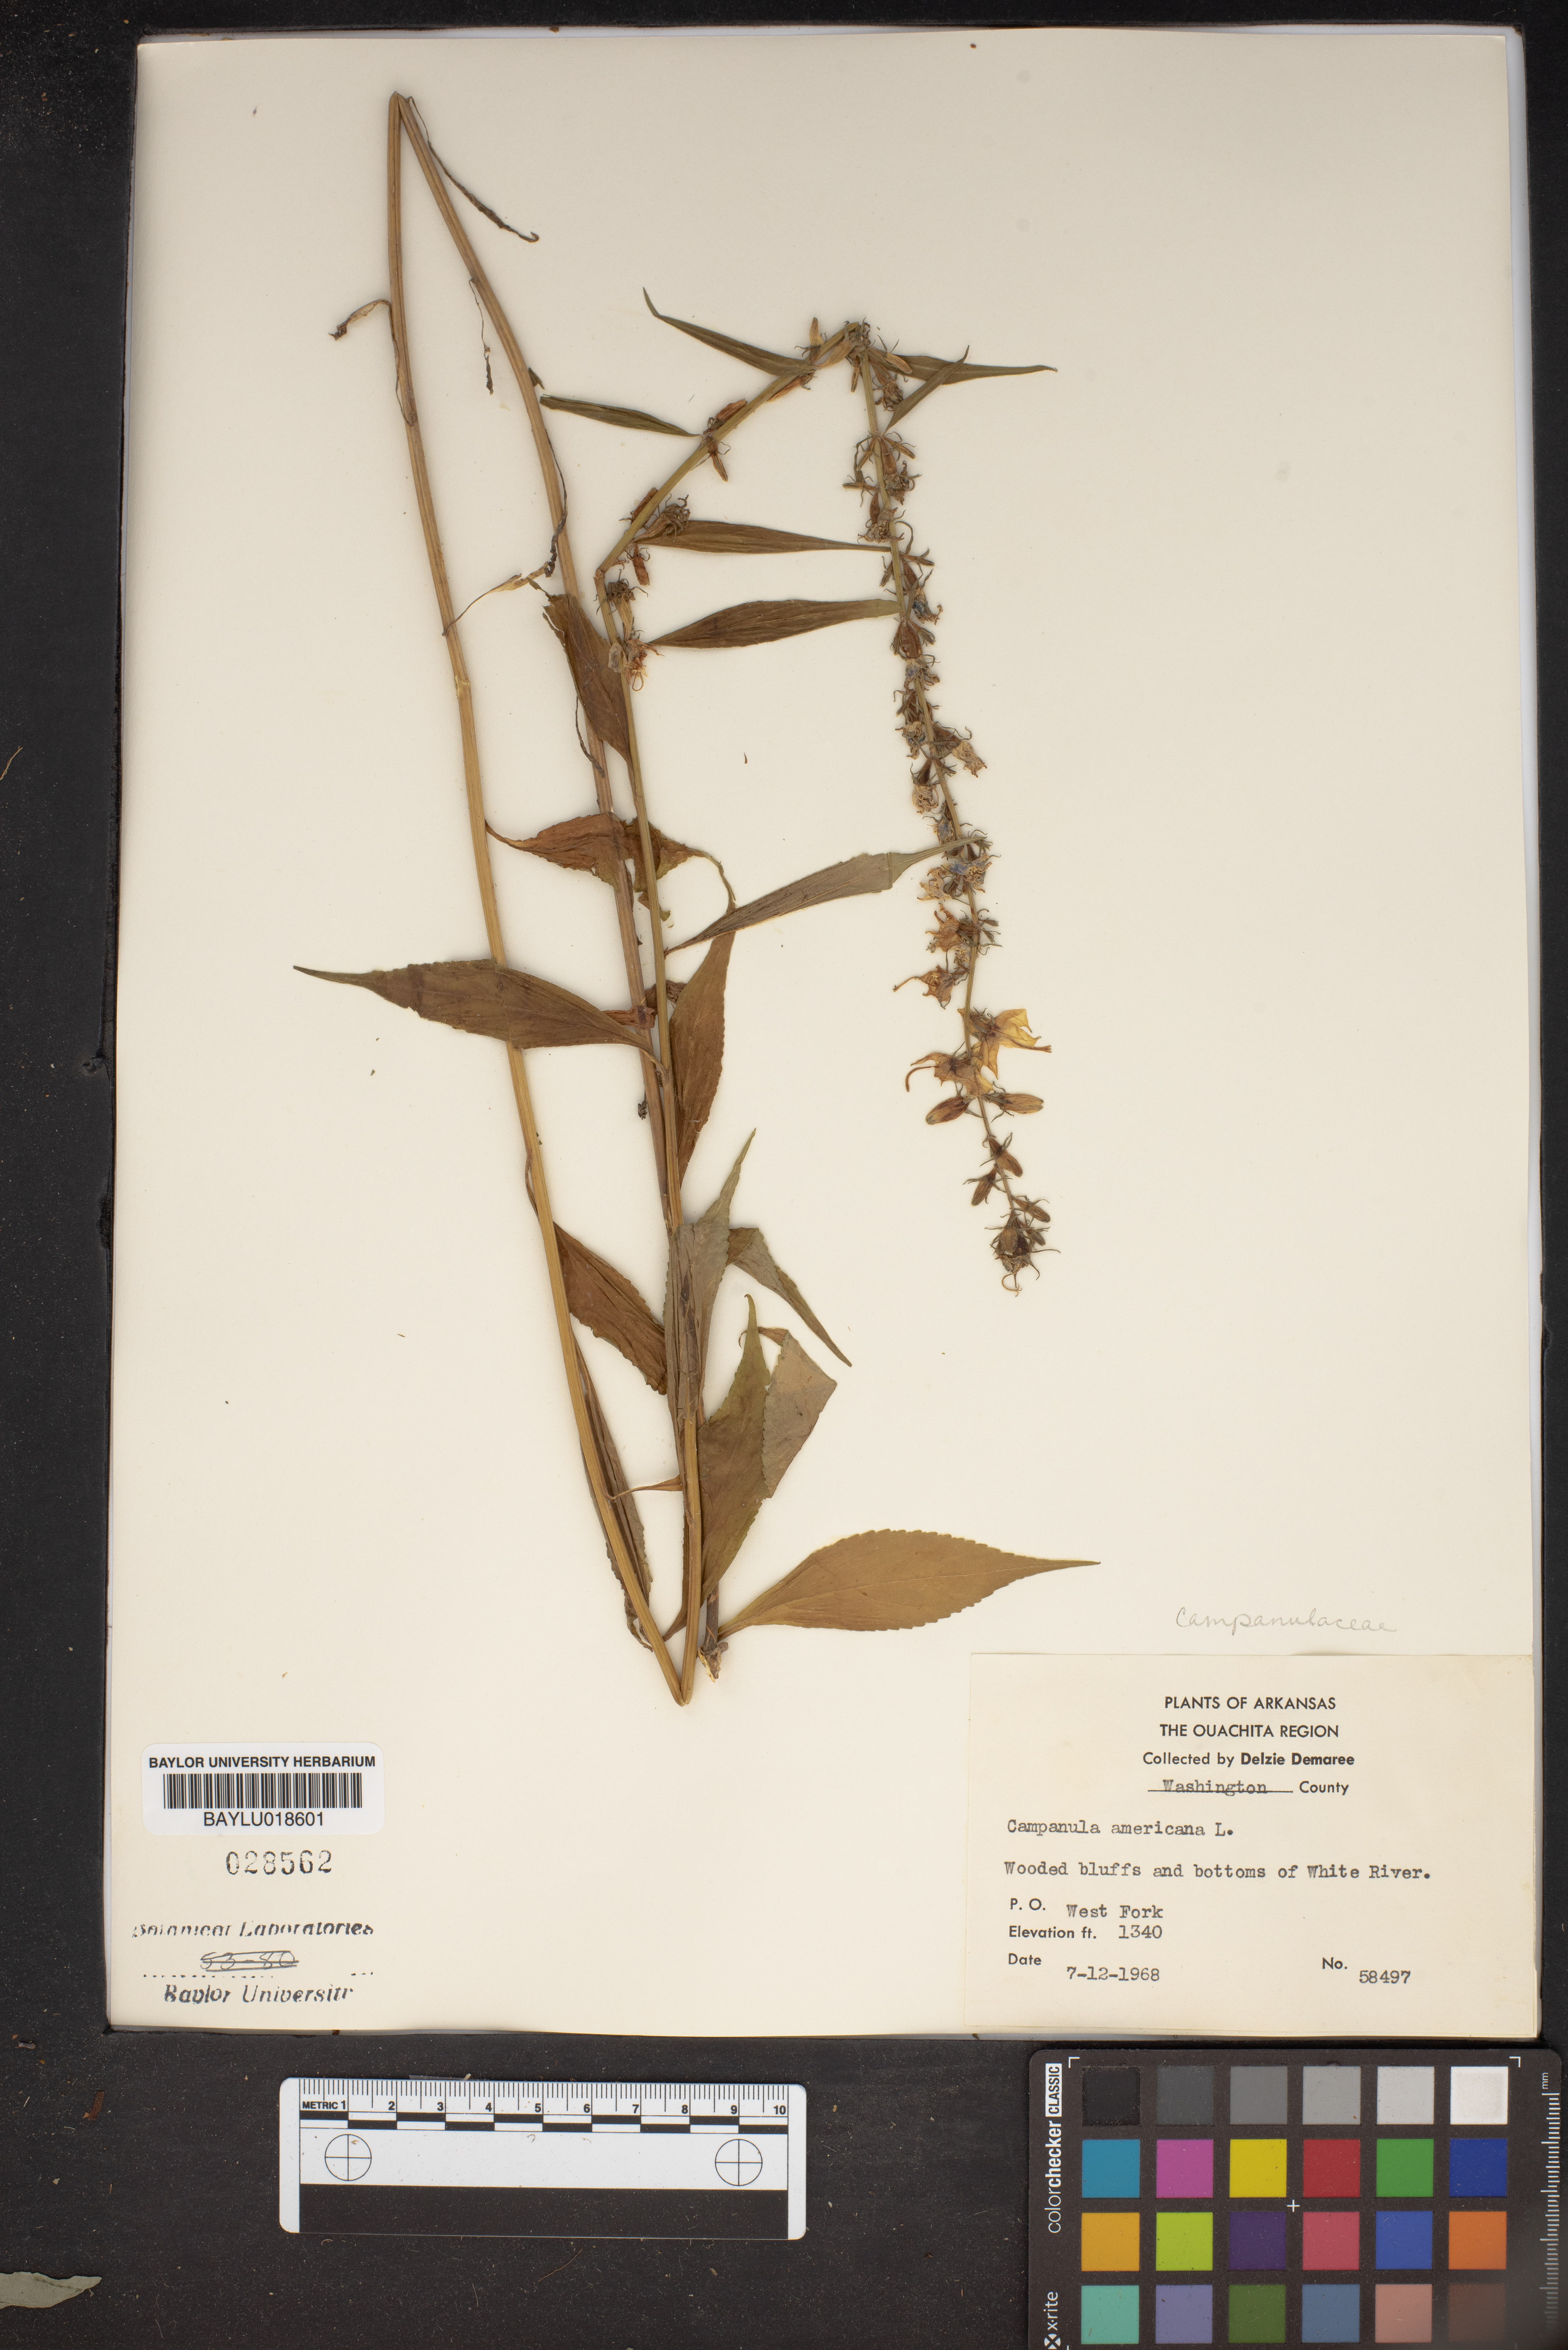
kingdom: Plantae
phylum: Tracheophyta
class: Magnoliopsida
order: Asterales
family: Campanulaceae
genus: Campanula
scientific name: Campanula americana
